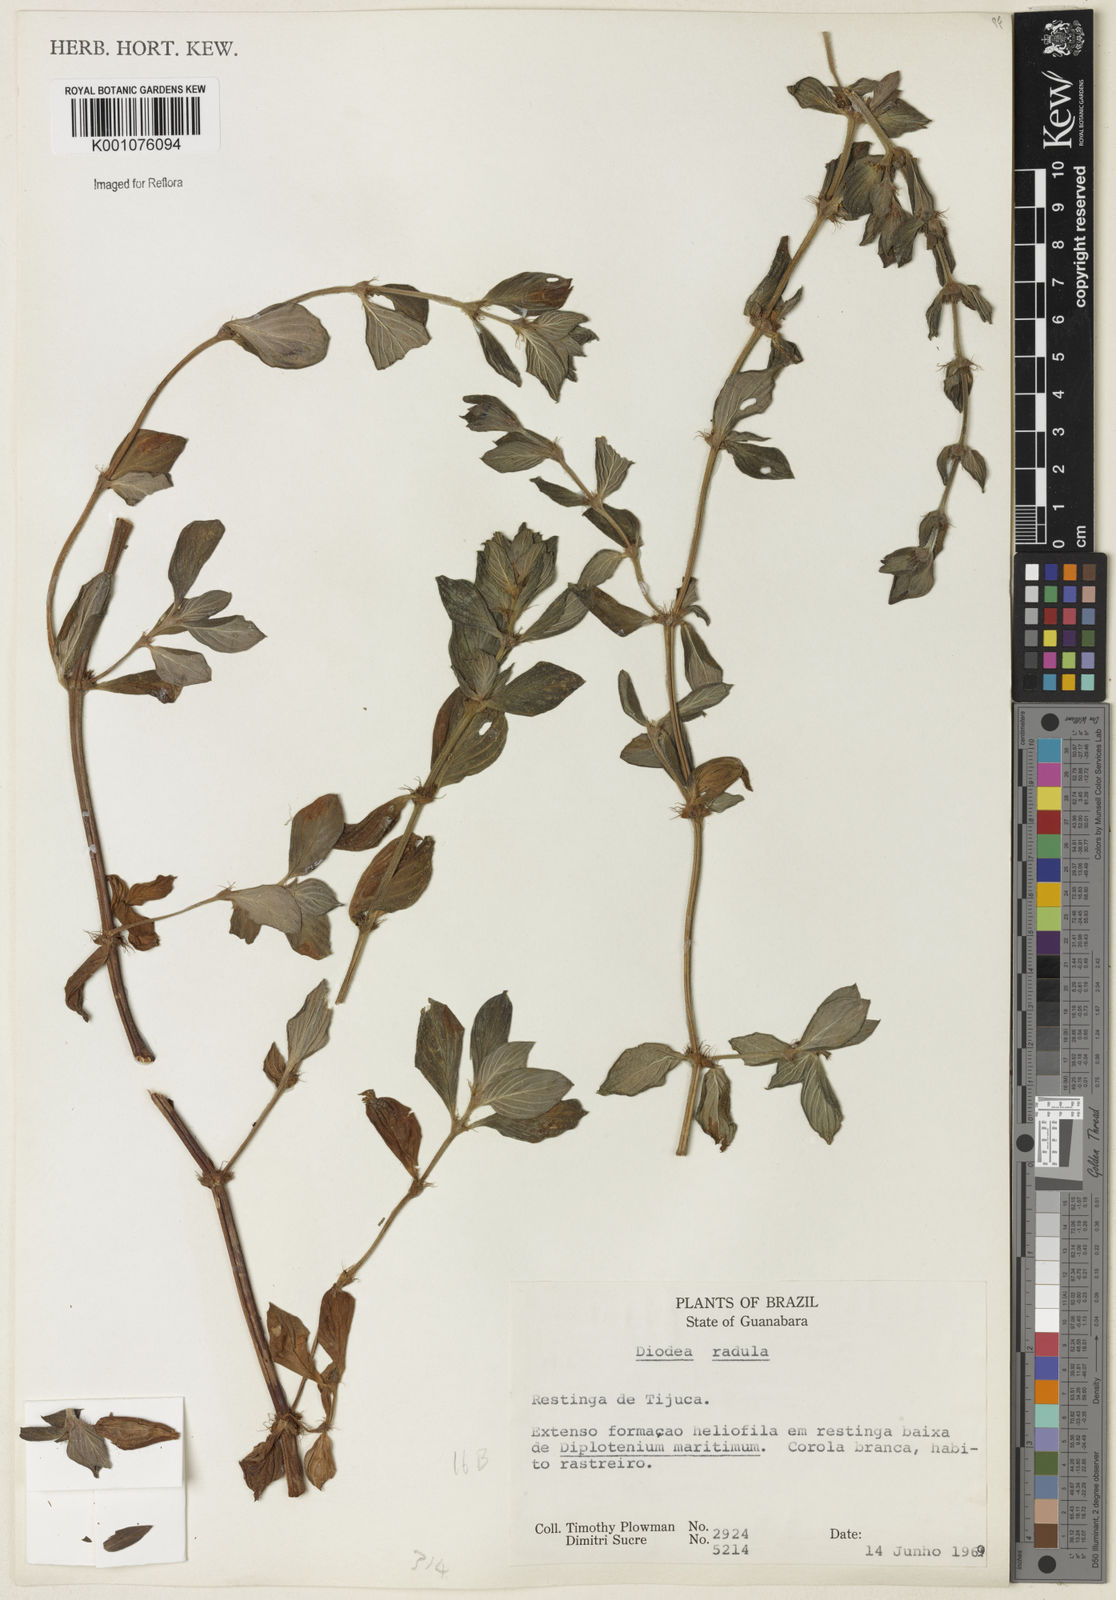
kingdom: Plantae
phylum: Tracheophyta
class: Magnoliopsida
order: Gentianales
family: Rubiaceae
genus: Hexasepalum
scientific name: Hexasepalum radulum
